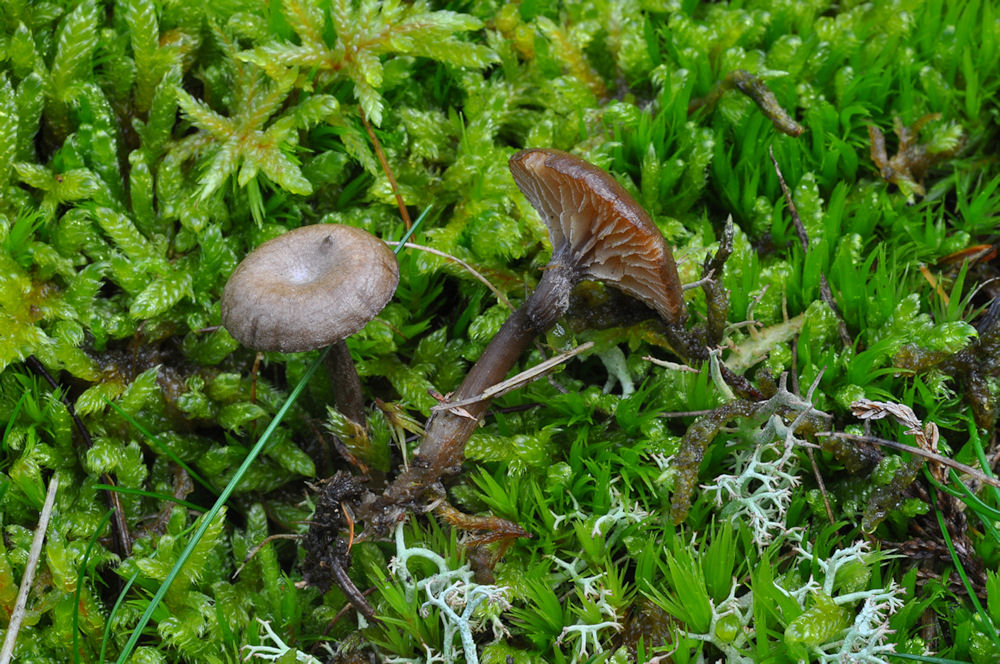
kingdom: Fungi
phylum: Basidiomycota
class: Agaricomycetes
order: Agaricales
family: Entolomataceae
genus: Entoloma
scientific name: Entoloma undatum
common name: bæltet rødblad
